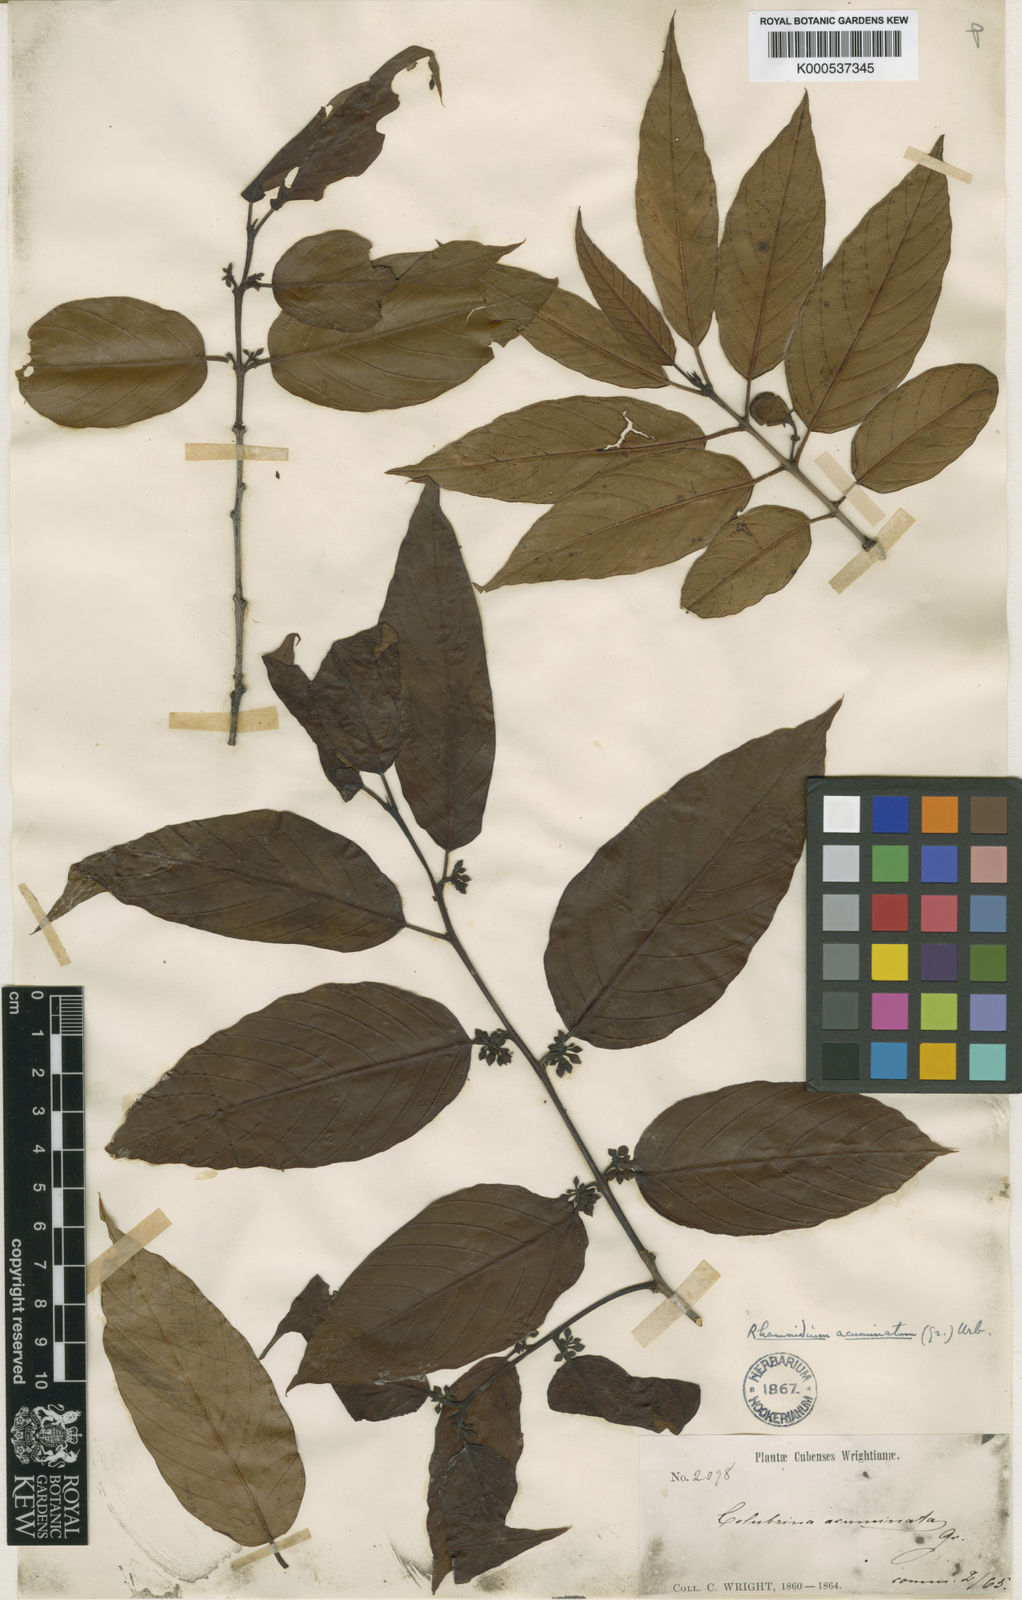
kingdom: Plantae
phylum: Tracheophyta
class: Magnoliopsida
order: Rosales
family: Rhamnaceae
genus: Auerodendron
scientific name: Auerodendron acuminatum
